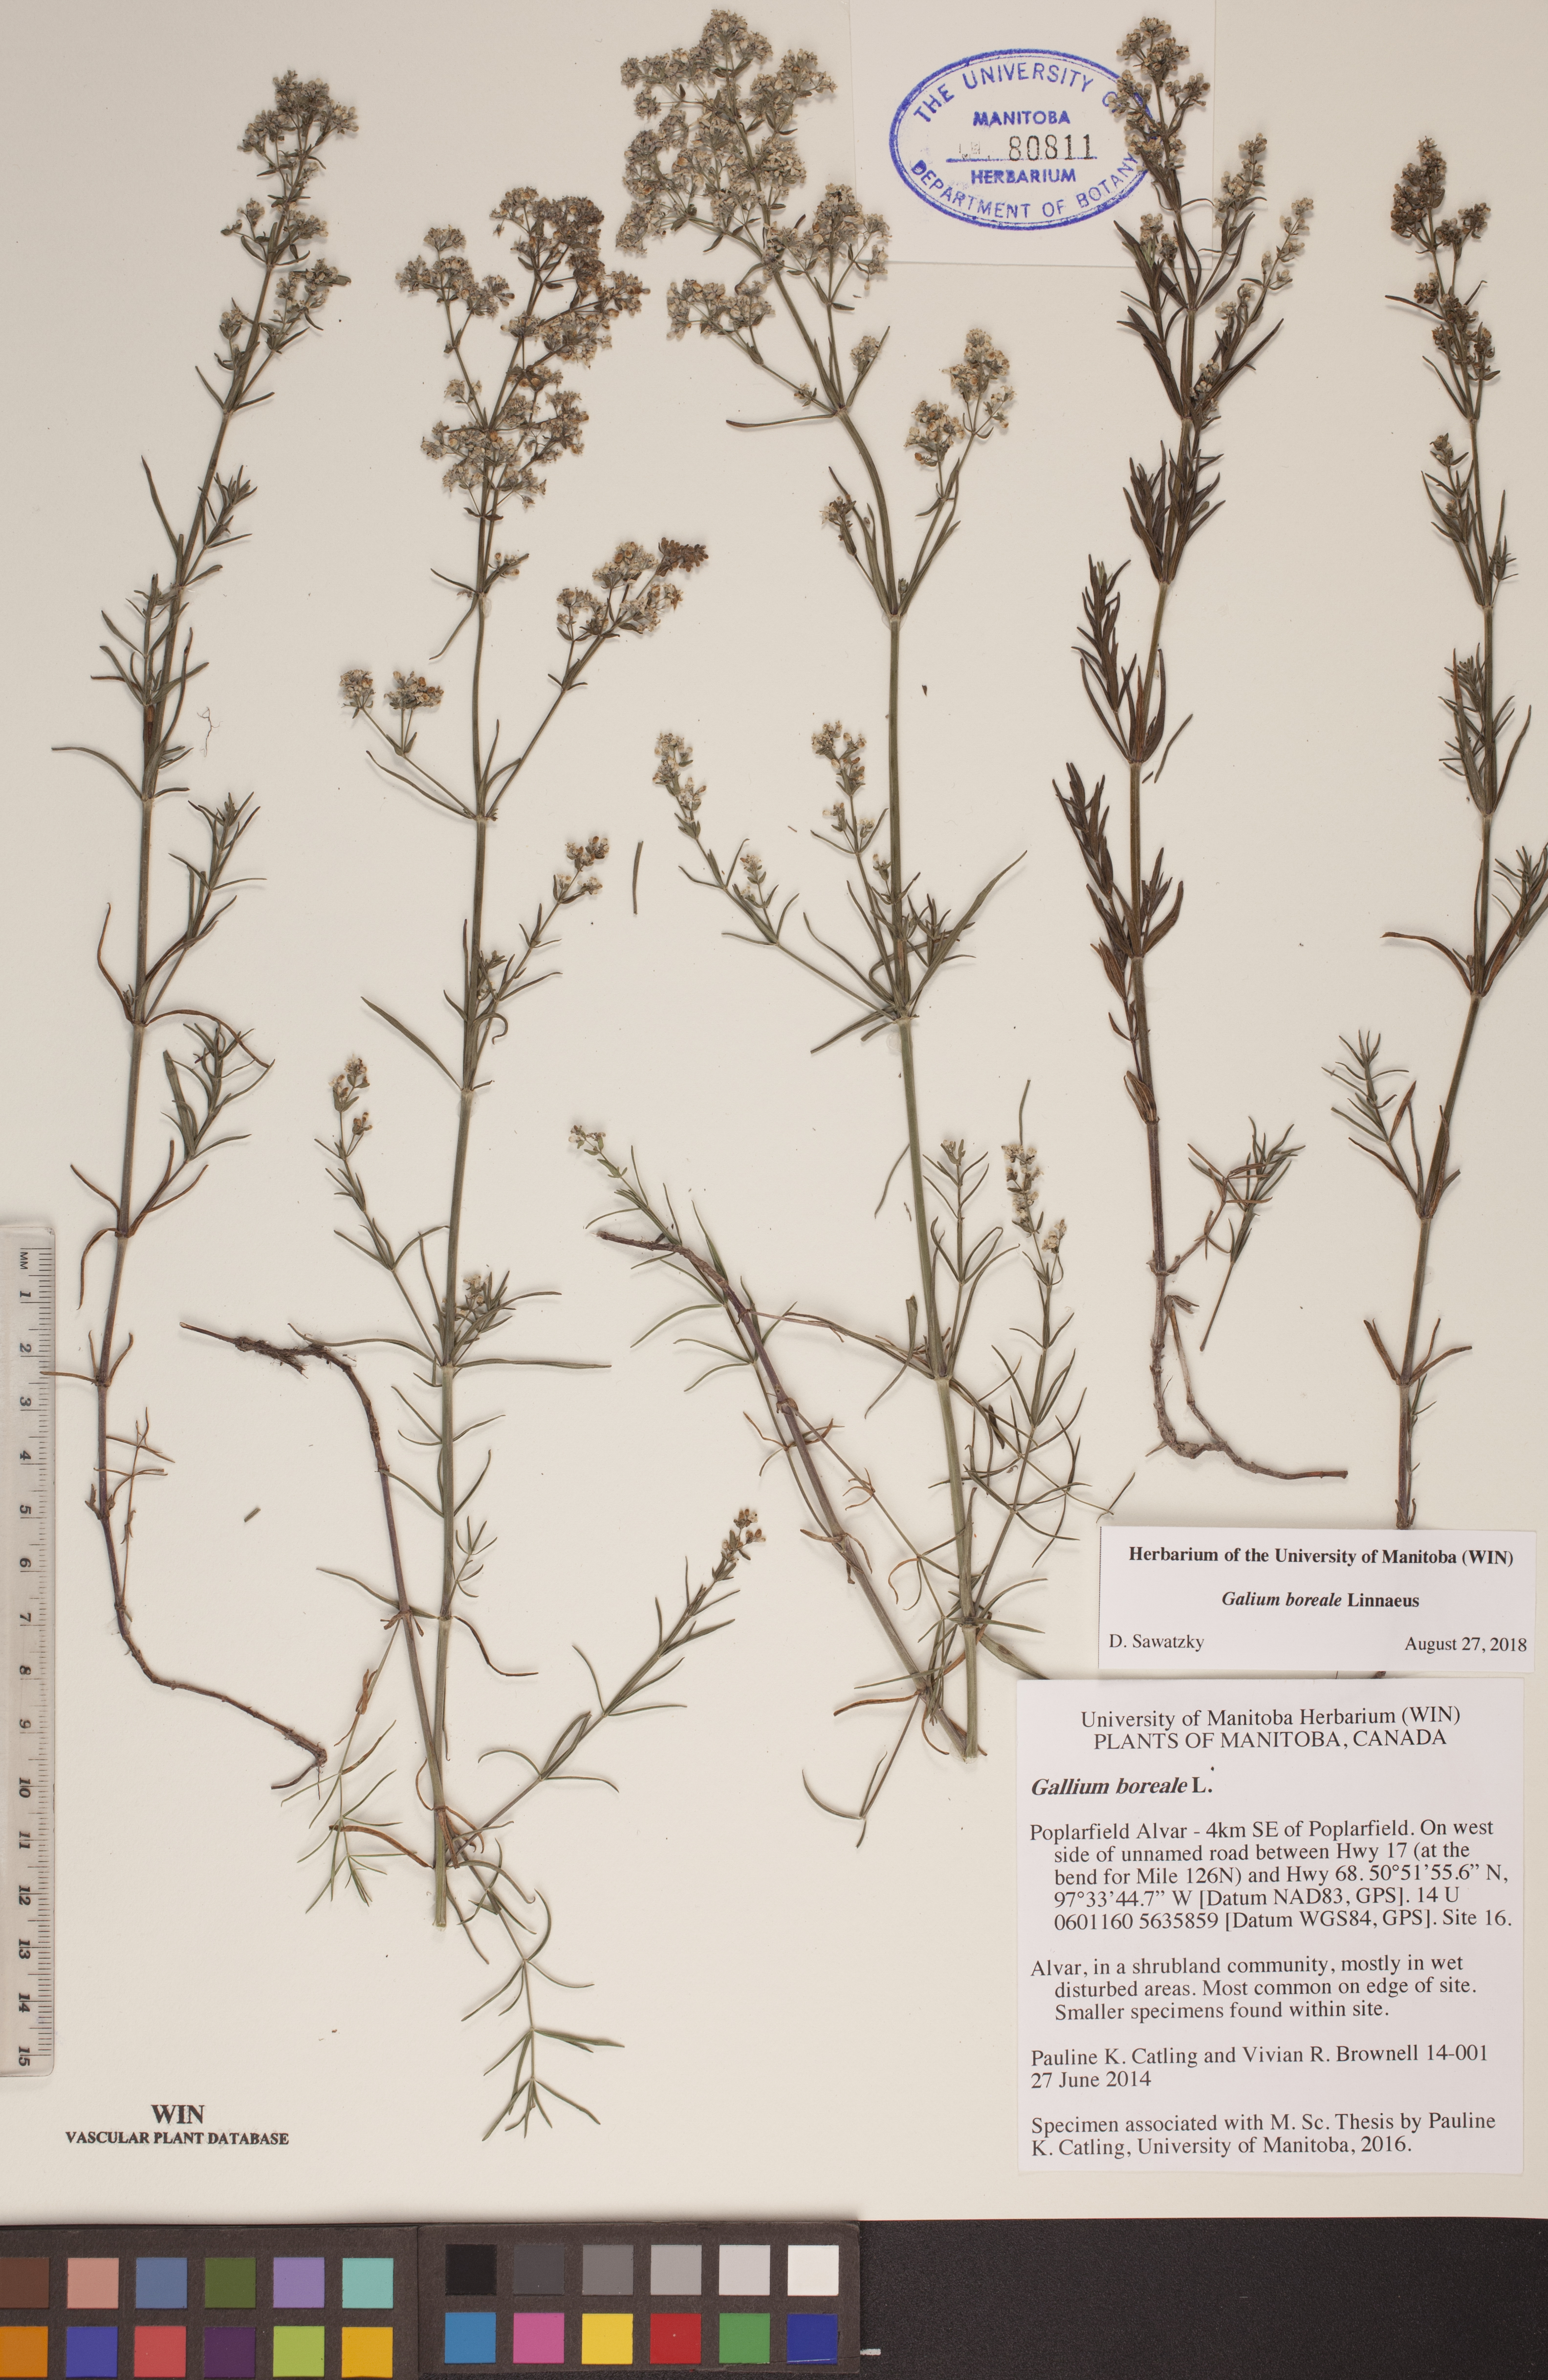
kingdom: Plantae
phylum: Tracheophyta
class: Magnoliopsida
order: Gentianales
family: Rubiaceae
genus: Galium
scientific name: Galium boreale
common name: Northern bedstraw
